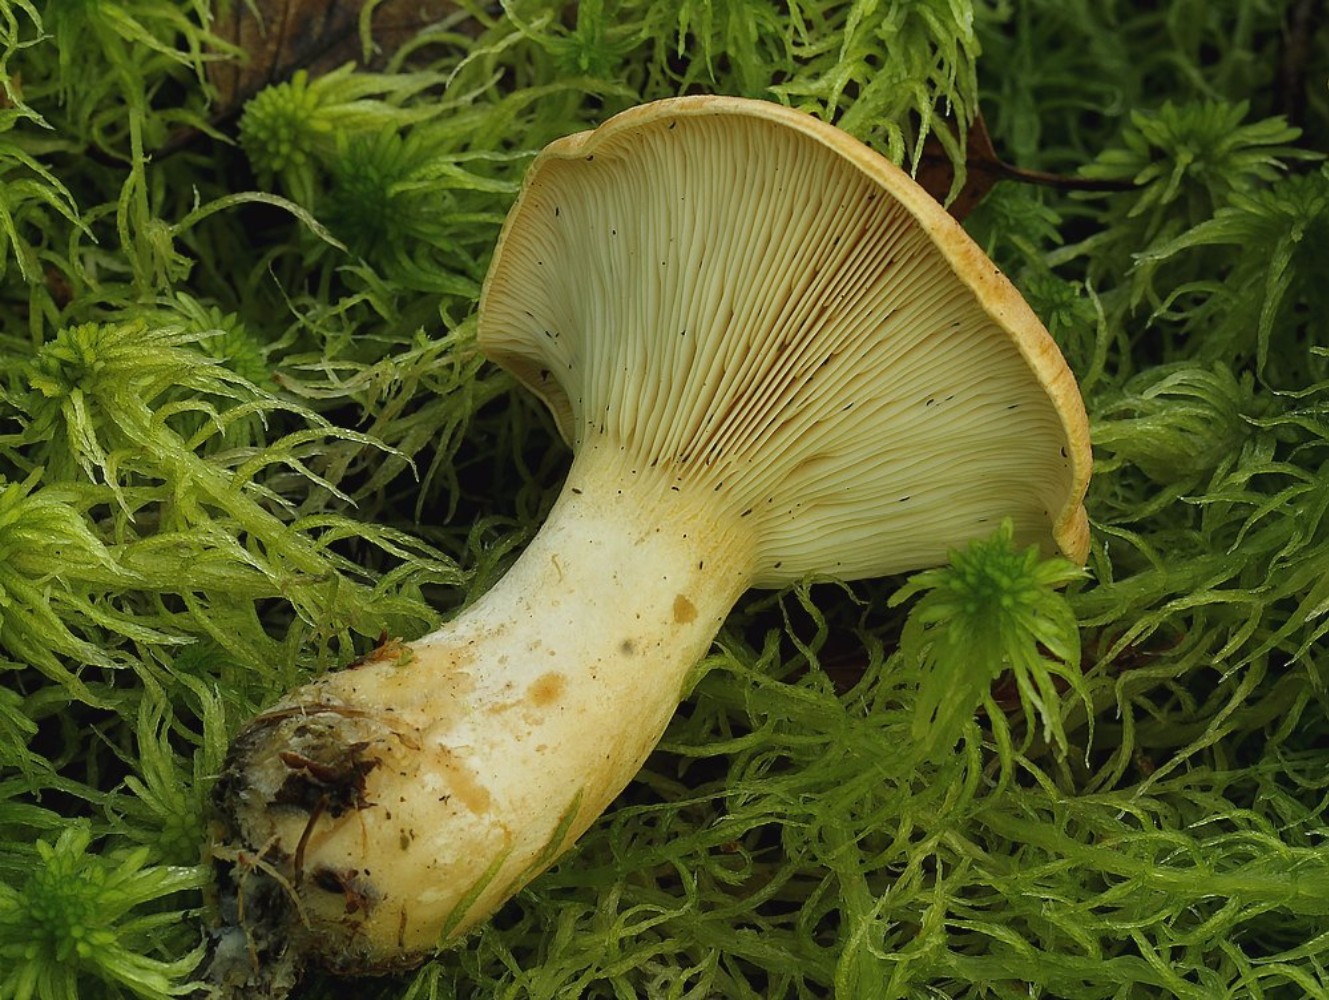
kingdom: Fungi
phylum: Basidiomycota
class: Agaricomycetes
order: Russulales
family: Russulaceae
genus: Lactarius
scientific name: Lactarius helvus
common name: mose-mælkehat
